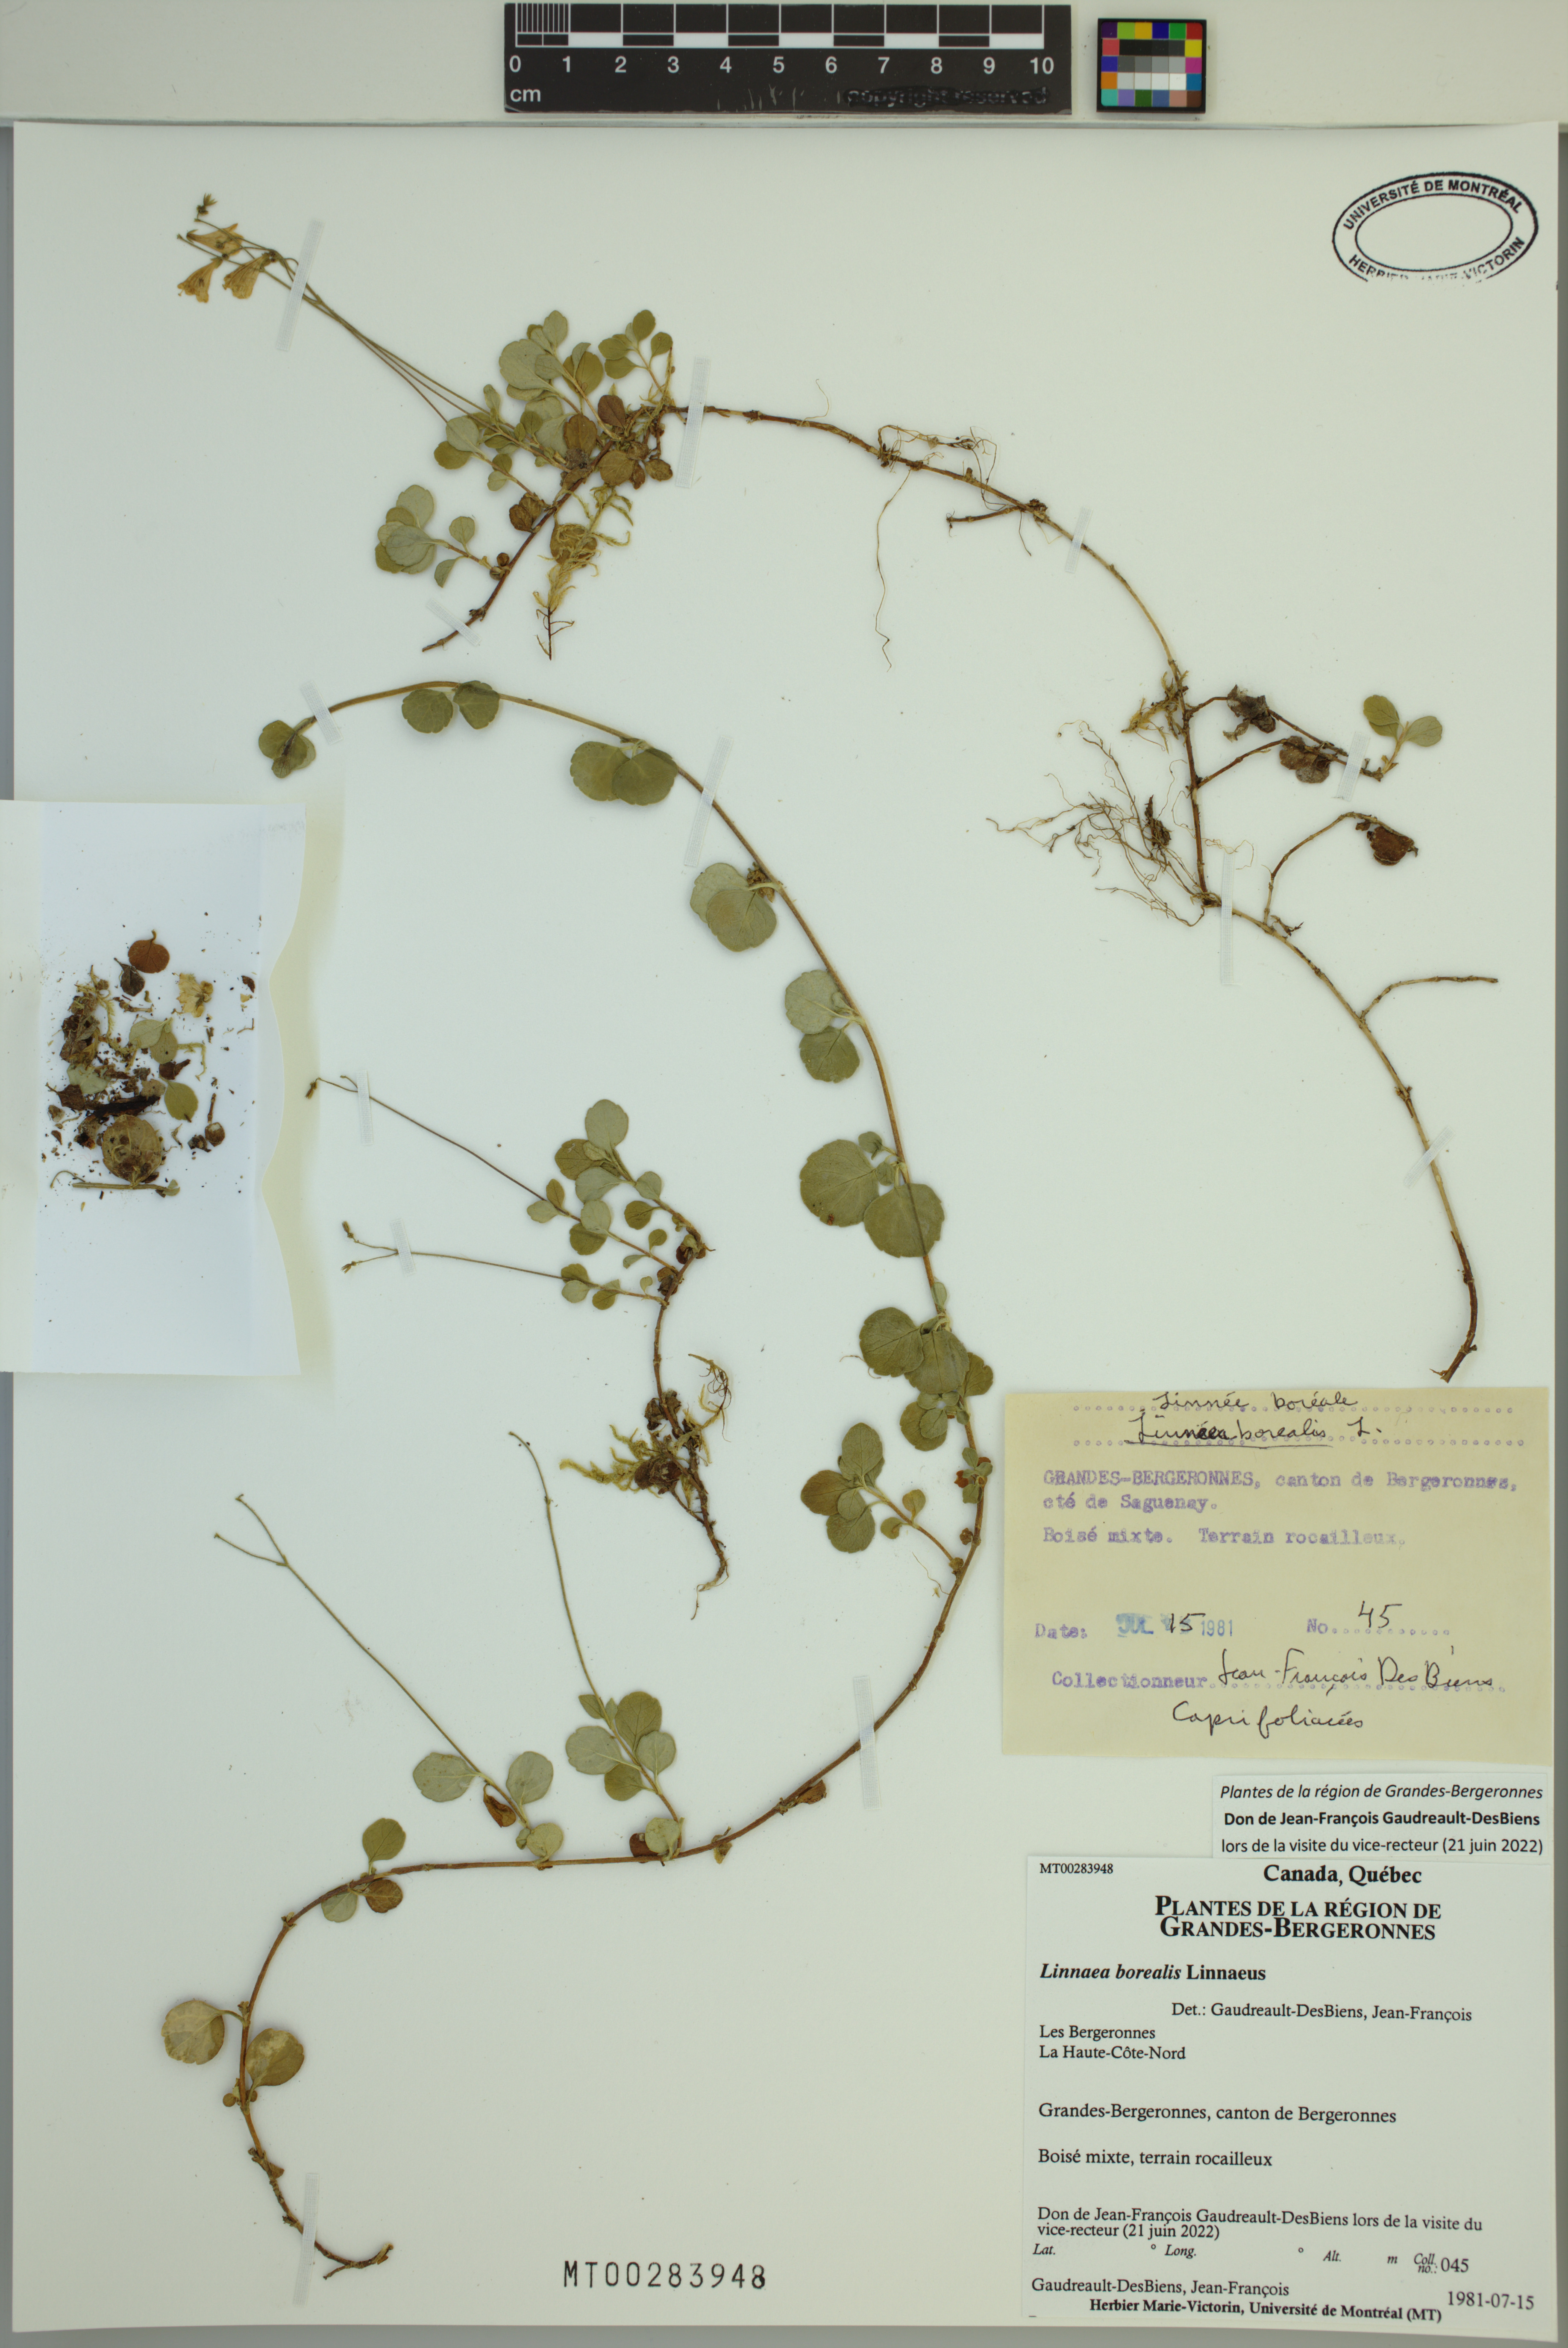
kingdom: Plantae
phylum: Tracheophyta
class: Magnoliopsida
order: Dipsacales
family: Caprifoliaceae
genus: Linnaea
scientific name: Linnaea borealis
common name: Twinflower
